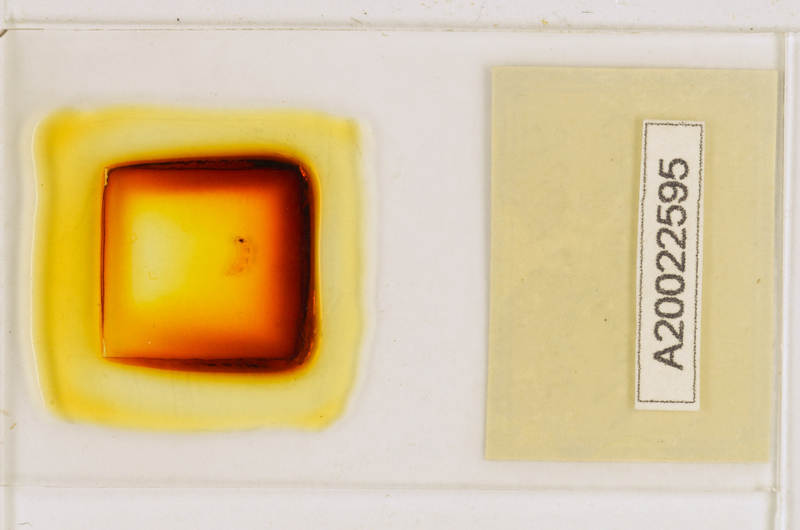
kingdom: Animalia
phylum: Arthropoda
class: Chilopoda
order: Scutigeromorpha
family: Scutigeridae
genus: Scutigera
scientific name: Scutigera coleoptrata
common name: House centipede
